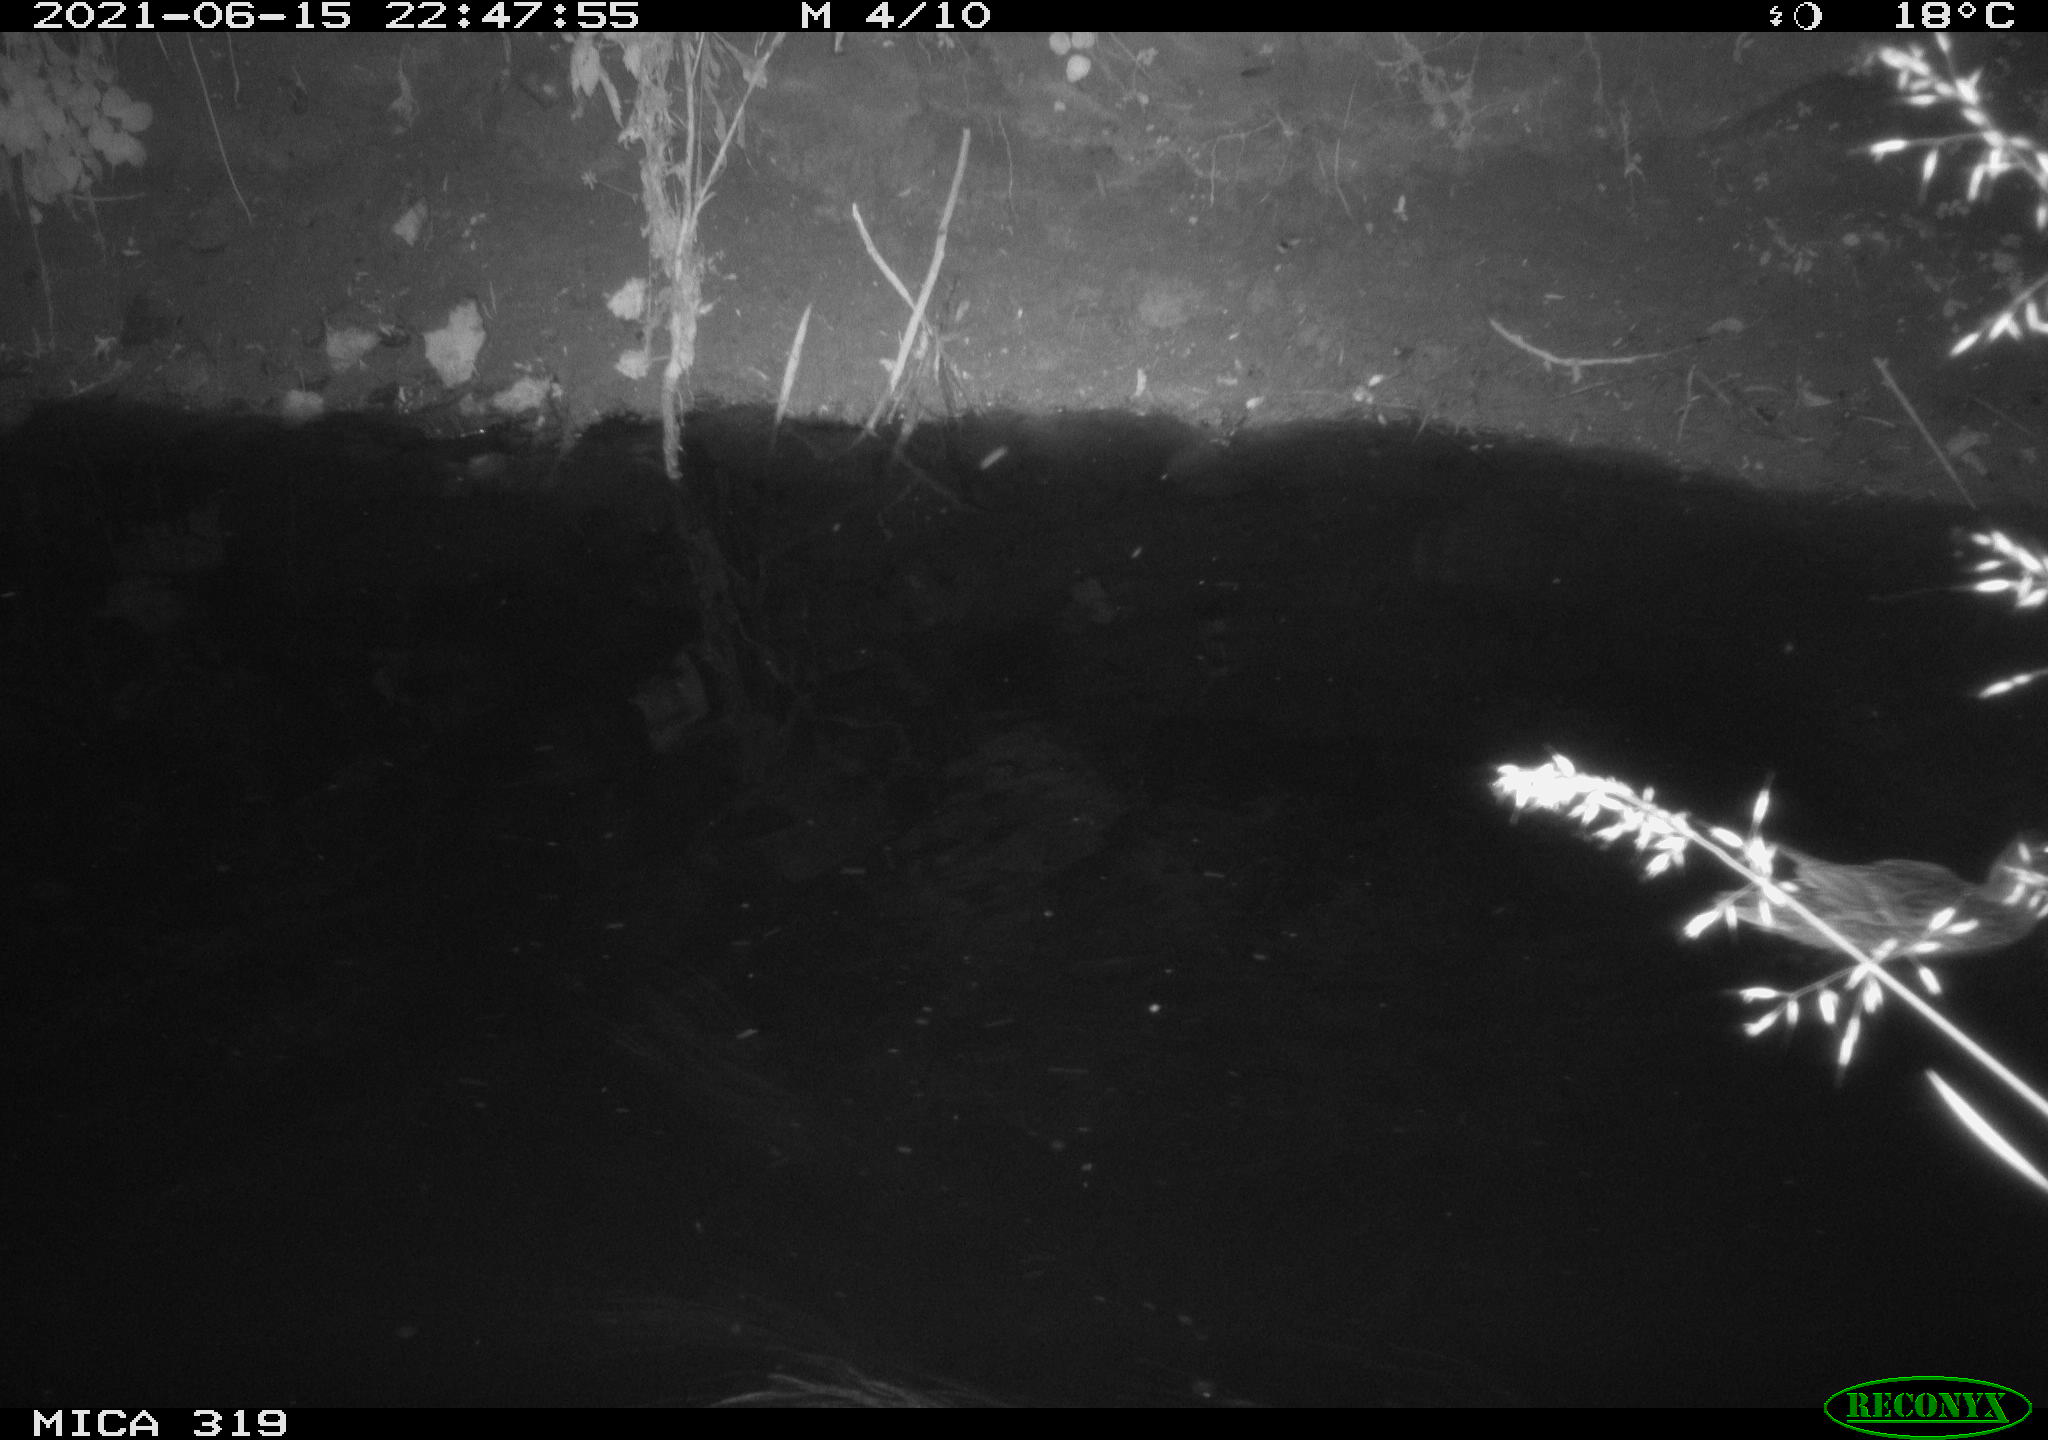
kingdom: Animalia
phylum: Chordata
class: Aves
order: Anseriformes
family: Anatidae
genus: Anas
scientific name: Anas platyrhynchos
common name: Mallard
